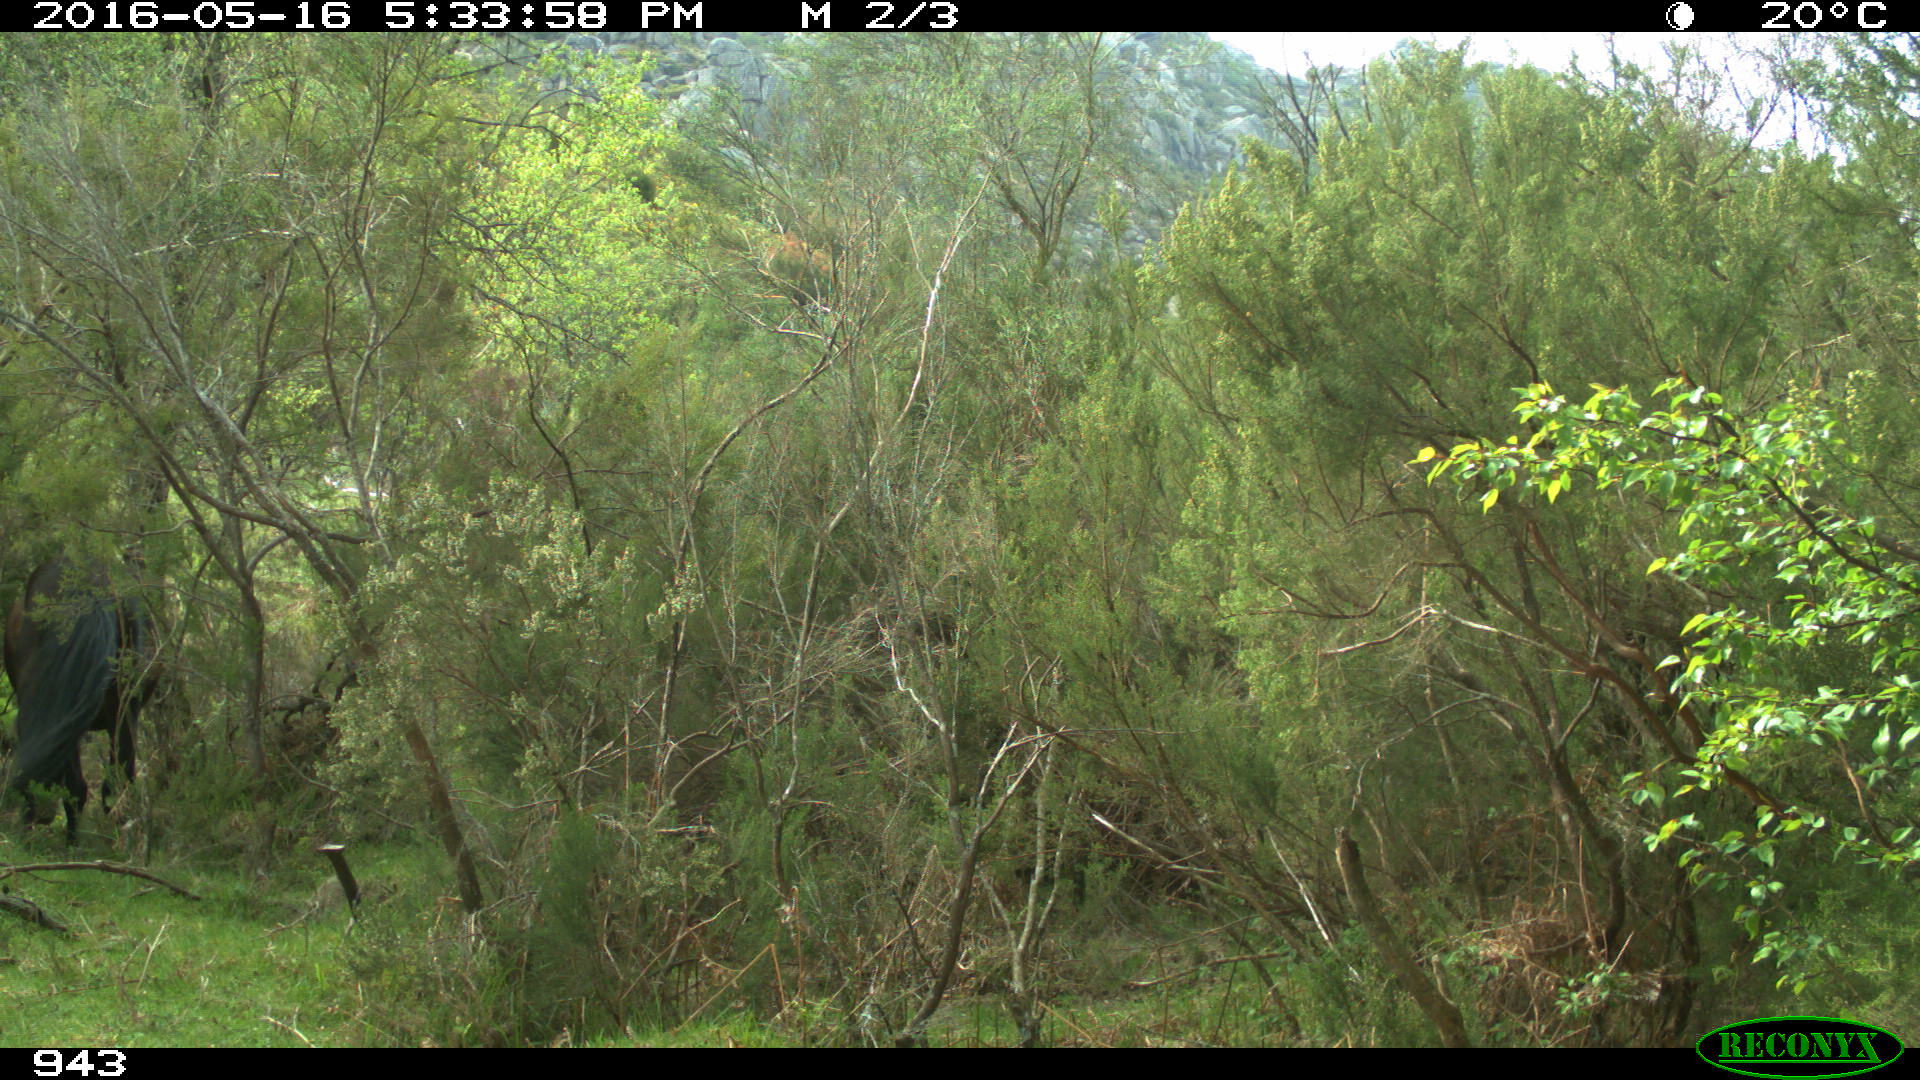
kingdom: Animalia
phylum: Chordata
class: Mammalia
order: Perissodactyla
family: Equidae
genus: Equus
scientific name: Equus caballus
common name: Horse
